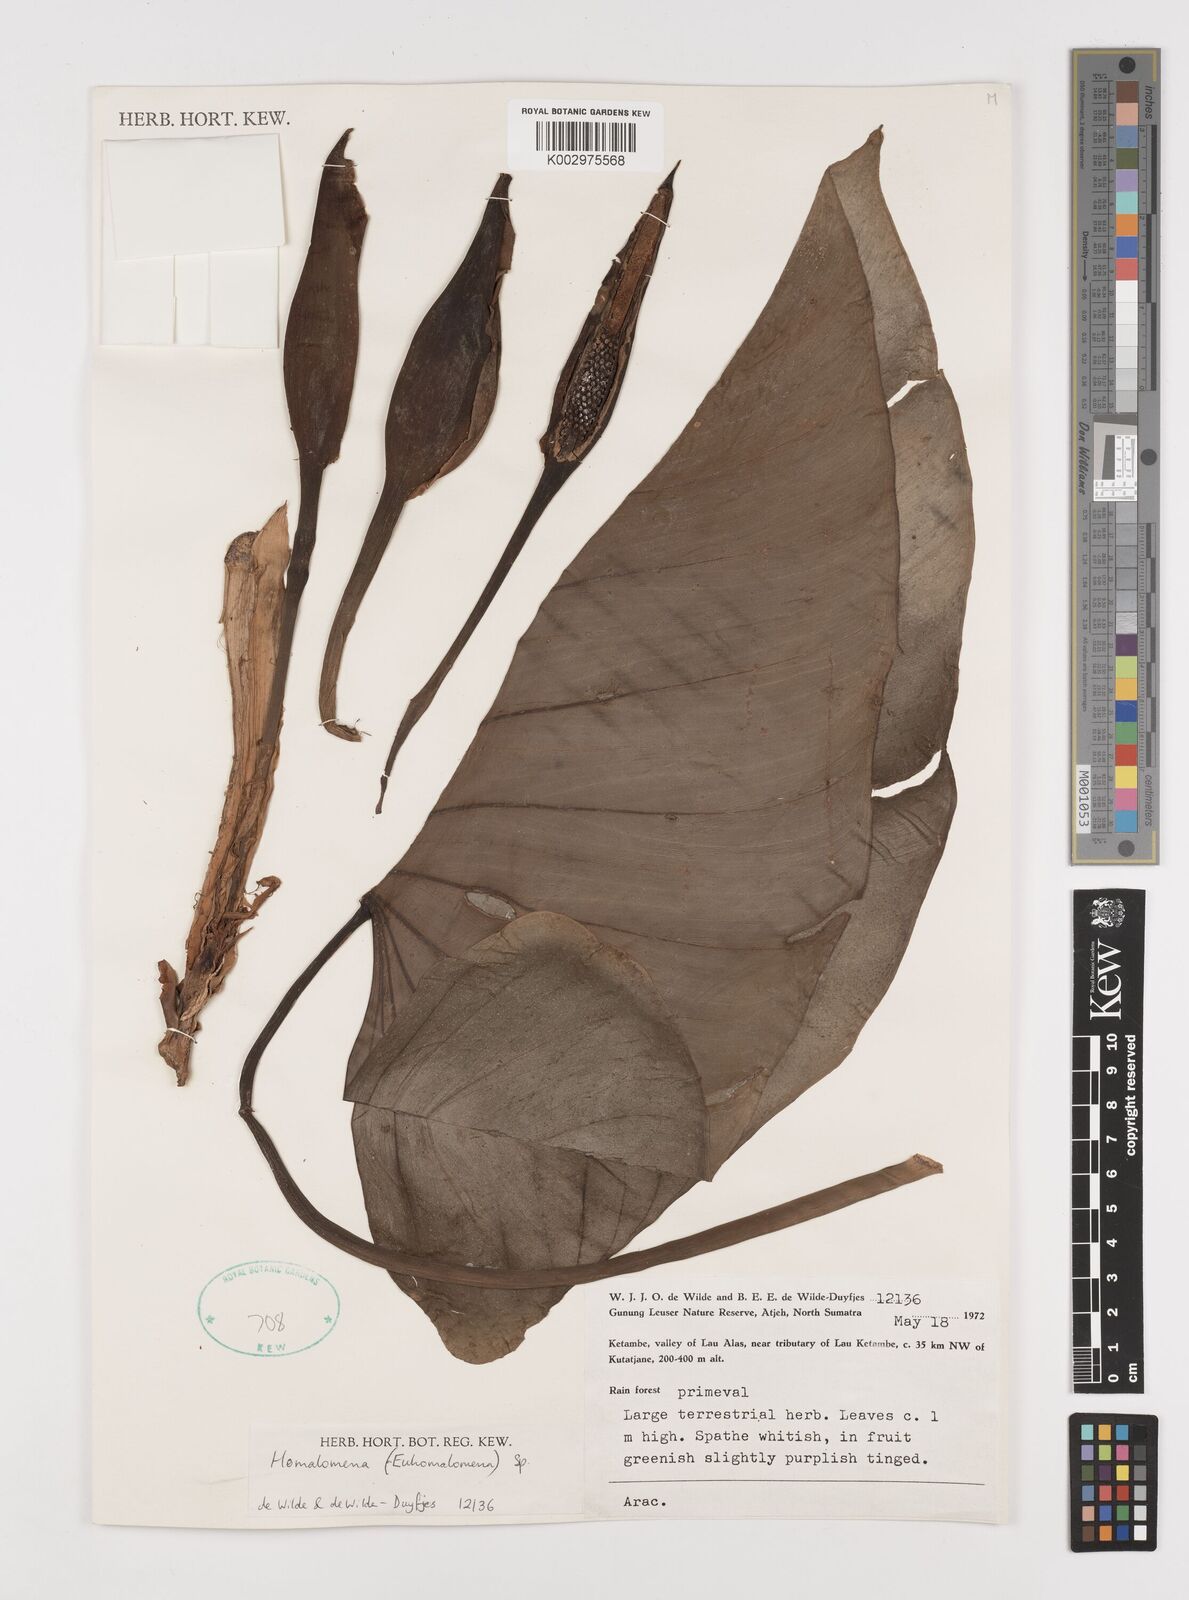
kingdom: Plantae
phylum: Tracheophyta
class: Liliopsida
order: Alismatales
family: Araceae
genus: Homalomena
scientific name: Homalomena
